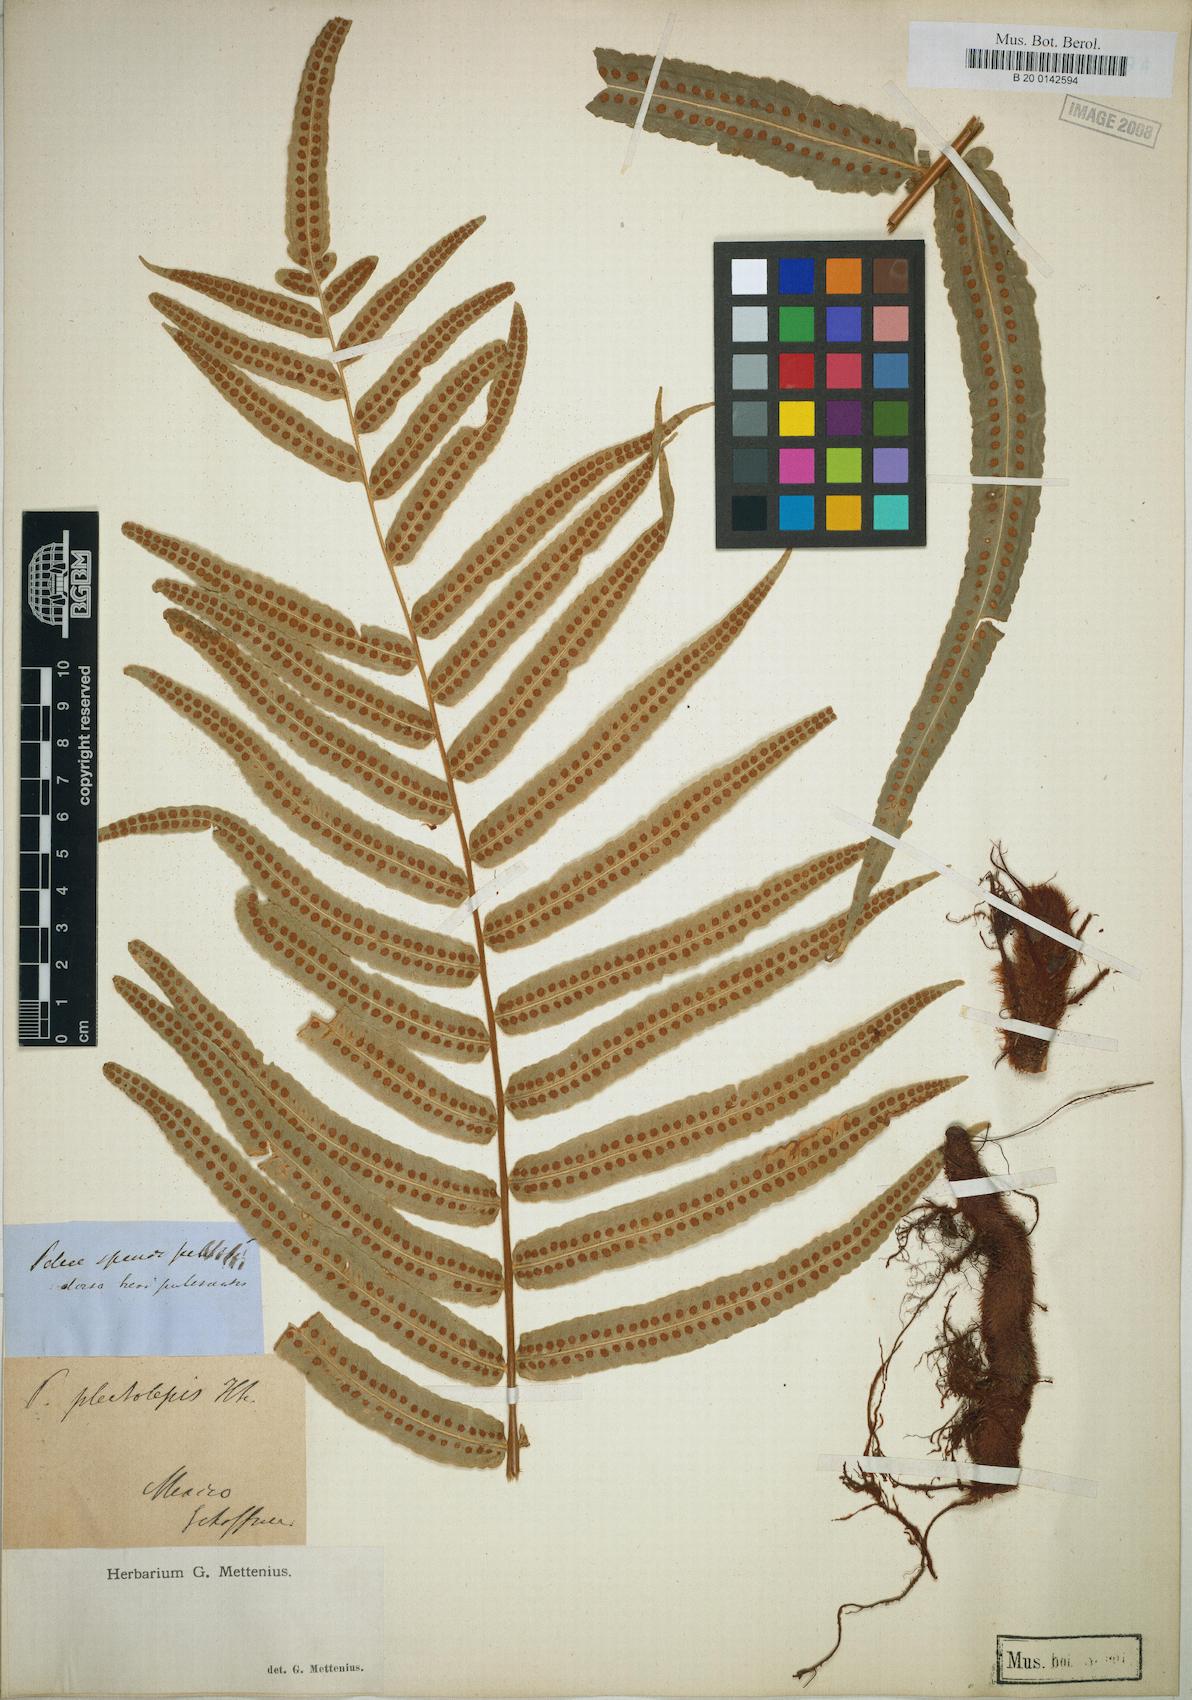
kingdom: Plantae
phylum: Tracheophyta
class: Polypodiopsida
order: Polypodiales
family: Polypodiaceae
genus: Polypodium
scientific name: Polypodium echinolepis
